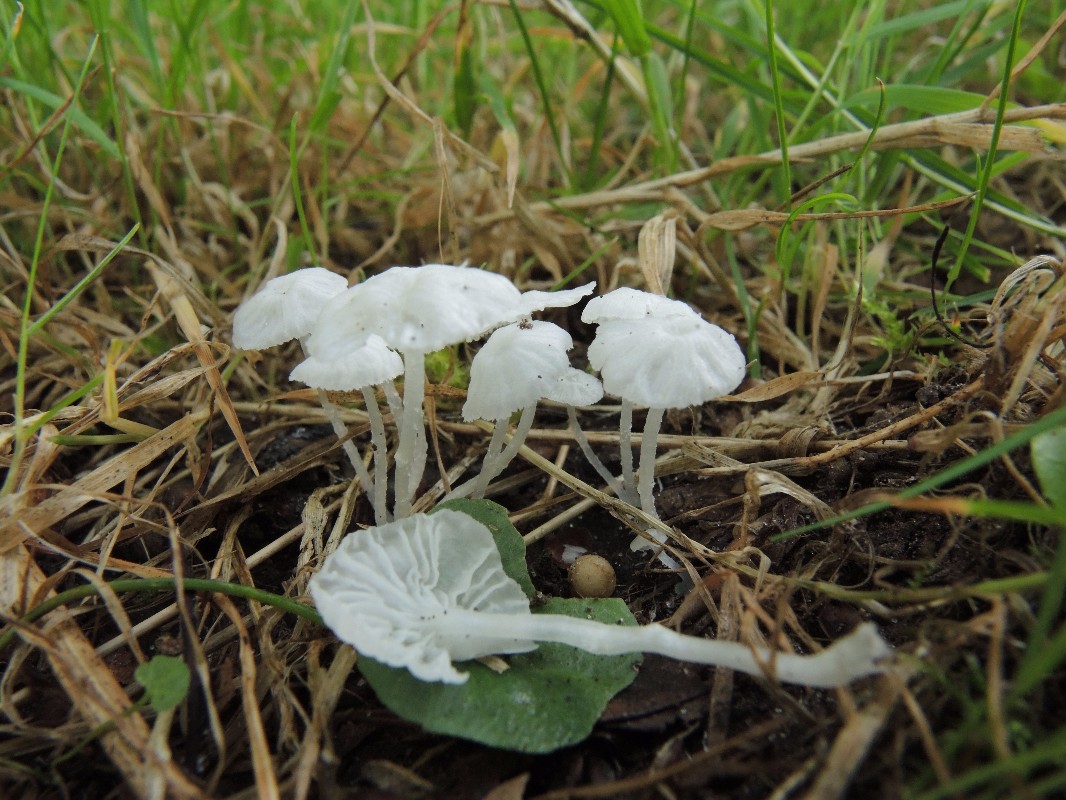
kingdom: Fungi
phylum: Basidiomycota
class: Agaricomycetes
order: Agaricales
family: Tricholomataceae
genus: Delicatula
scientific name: Delicatula integrella
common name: slørhuesvamp
